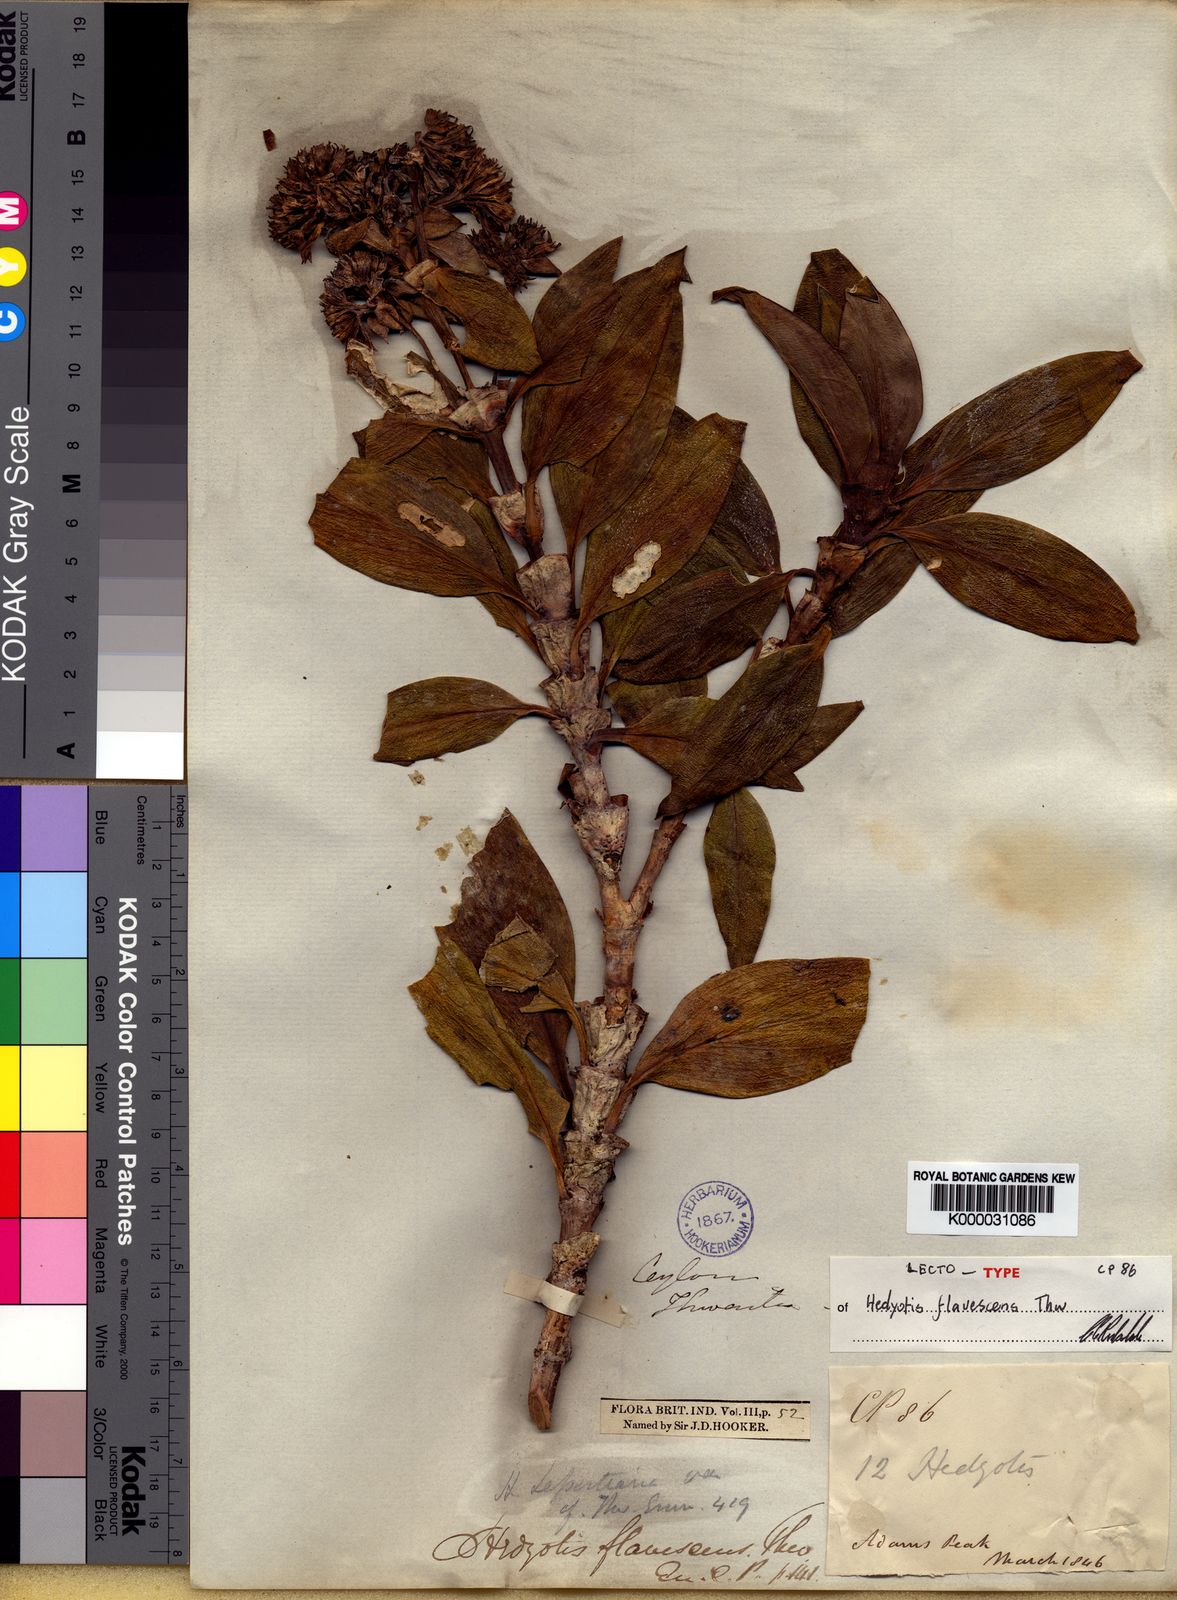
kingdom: Plantae
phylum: Tracheophyta
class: Magnoliopsida
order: Gentianales
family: Rubiaceae
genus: Hedyotis
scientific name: Hedyotis flavescens
